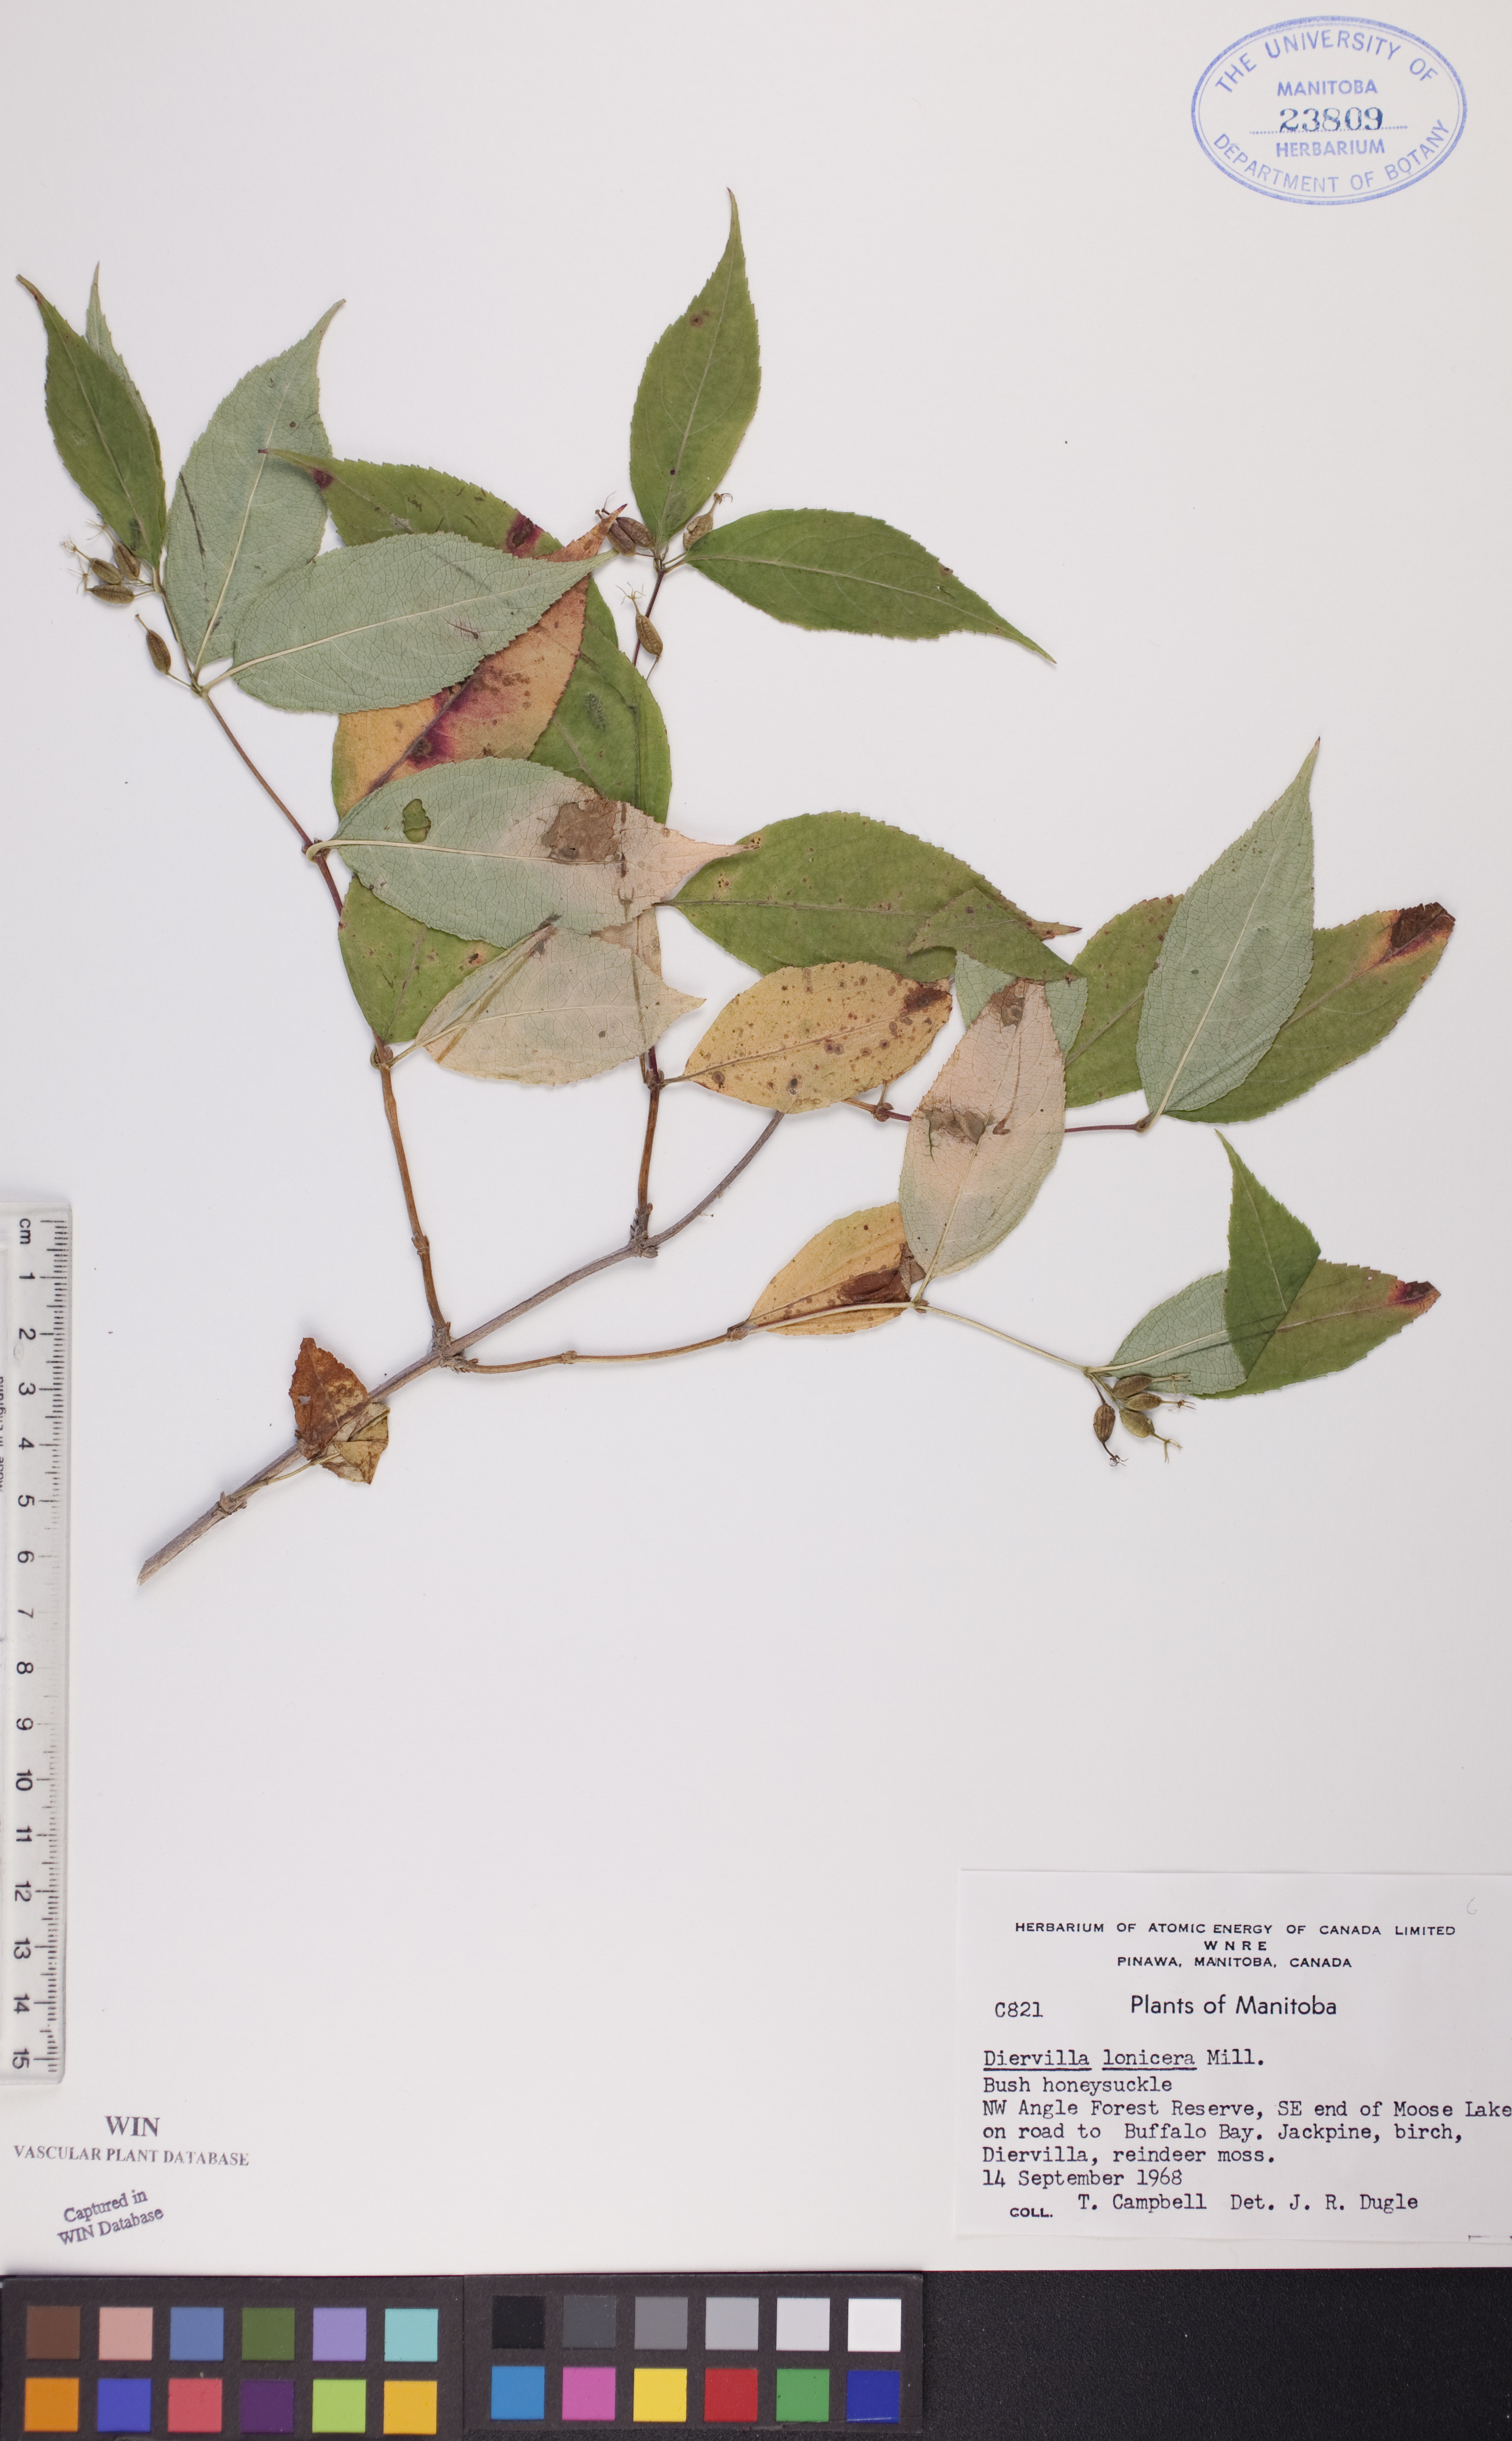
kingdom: Plantae
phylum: Tracheophyta
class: Magnoliopsida
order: Dipsacales
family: Caprifoliaceae
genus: Diervilla
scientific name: Diervilla lonicera
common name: Bush-honeysuckle
